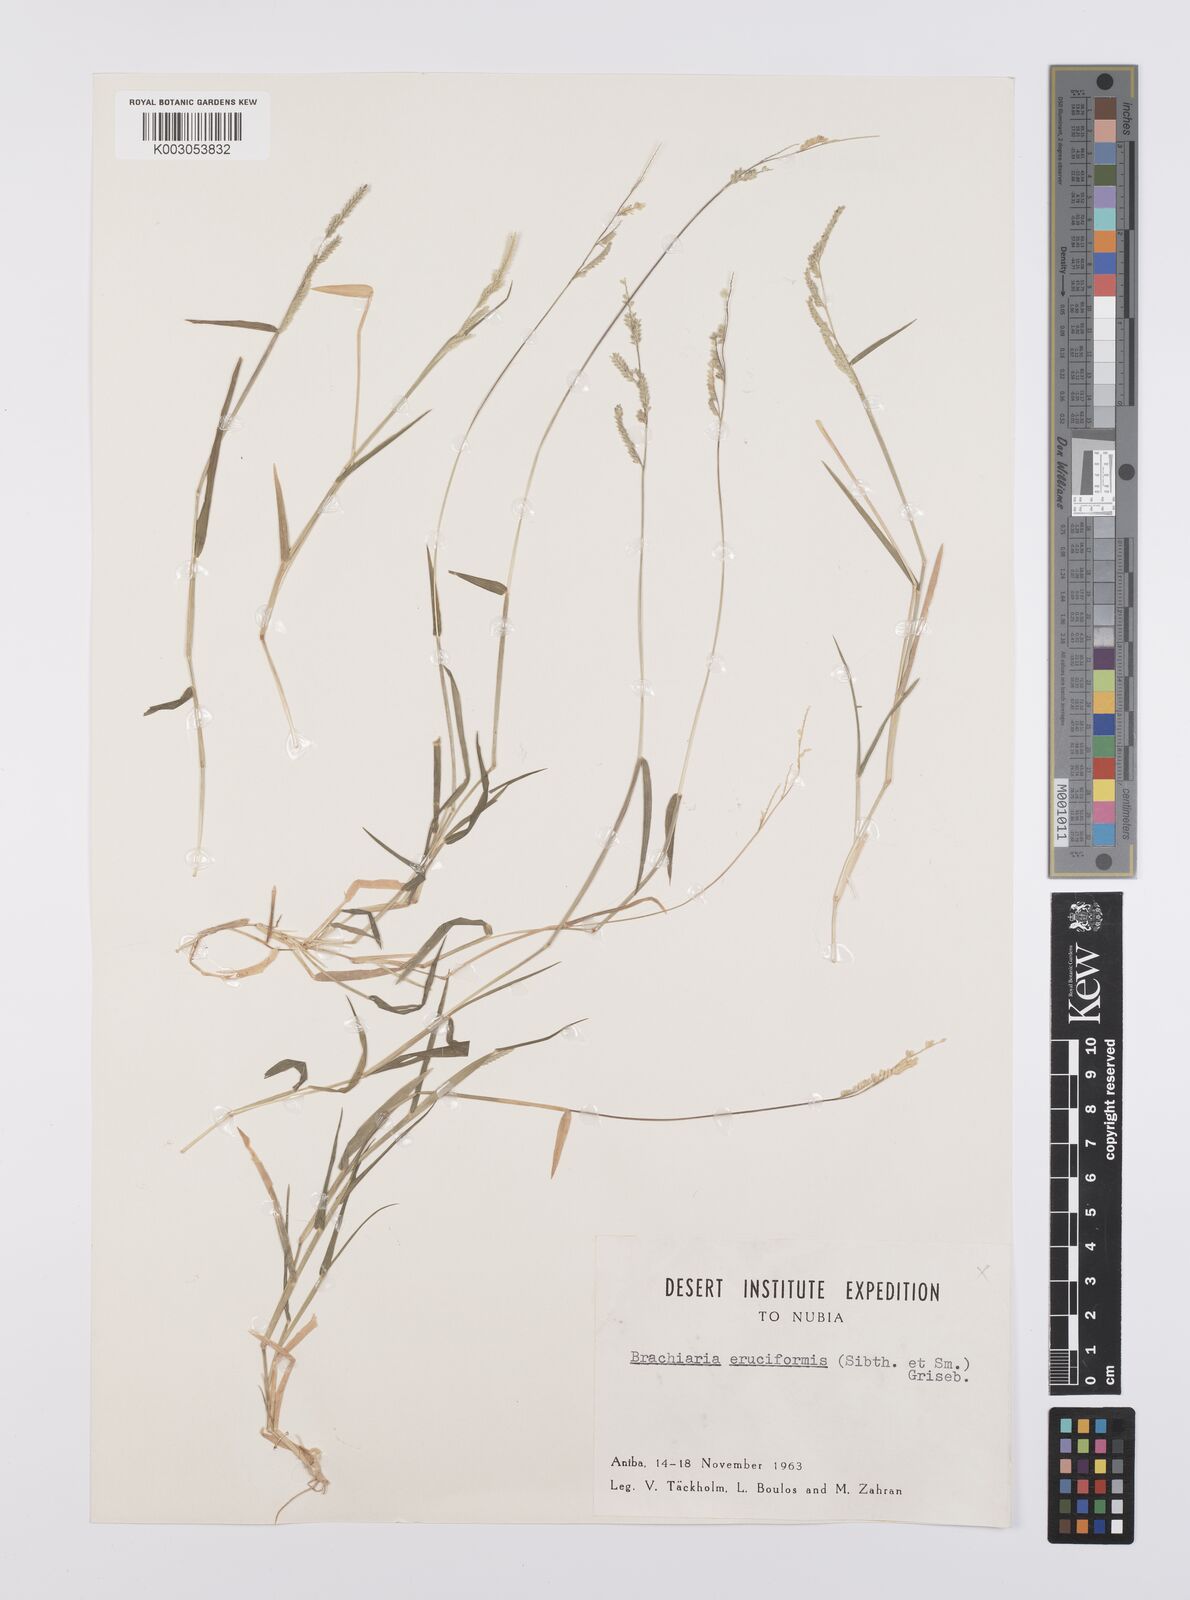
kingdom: Plantae
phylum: Tracheophyta
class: Liliopsida
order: Poales
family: Poaceae
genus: Moorochloa
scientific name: Moorochloa eruciformis
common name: Sweet signalgrass
